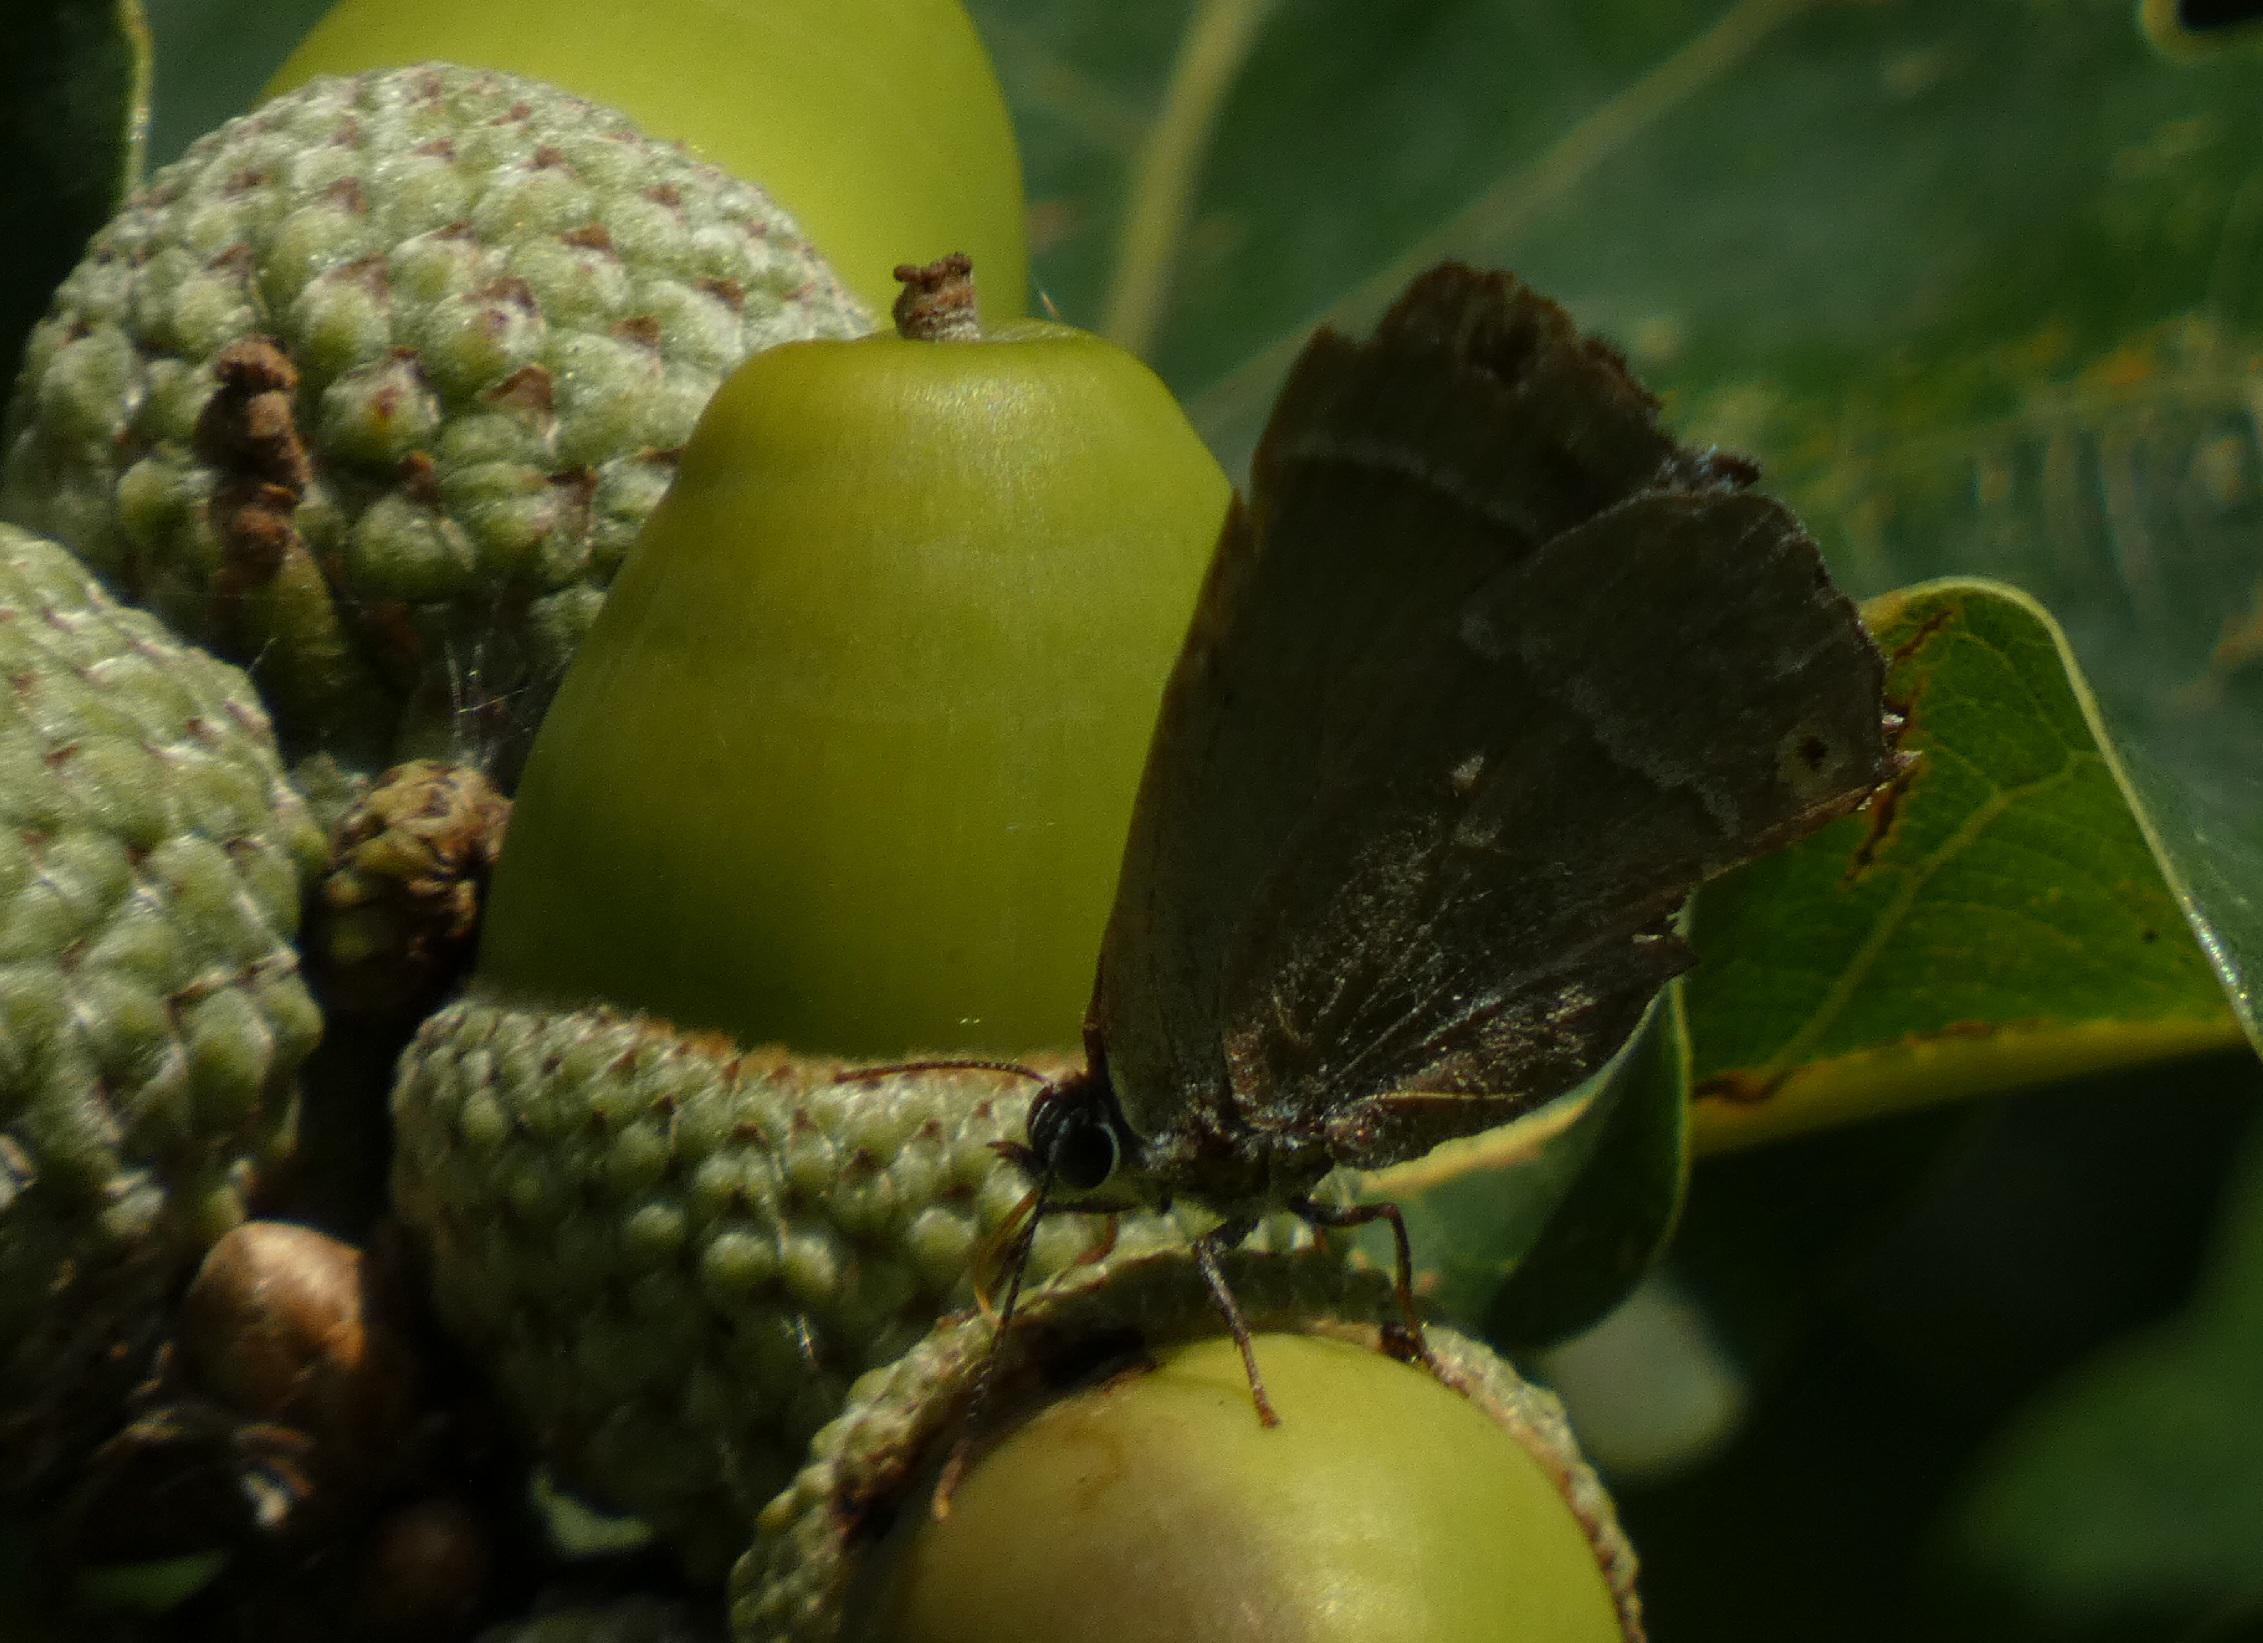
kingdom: Animalia
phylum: Arthropoda
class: Insecta
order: Lepidoptera
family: Lycaenidae
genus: Quercusia
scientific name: Quercusia quercus
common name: Blåhale
